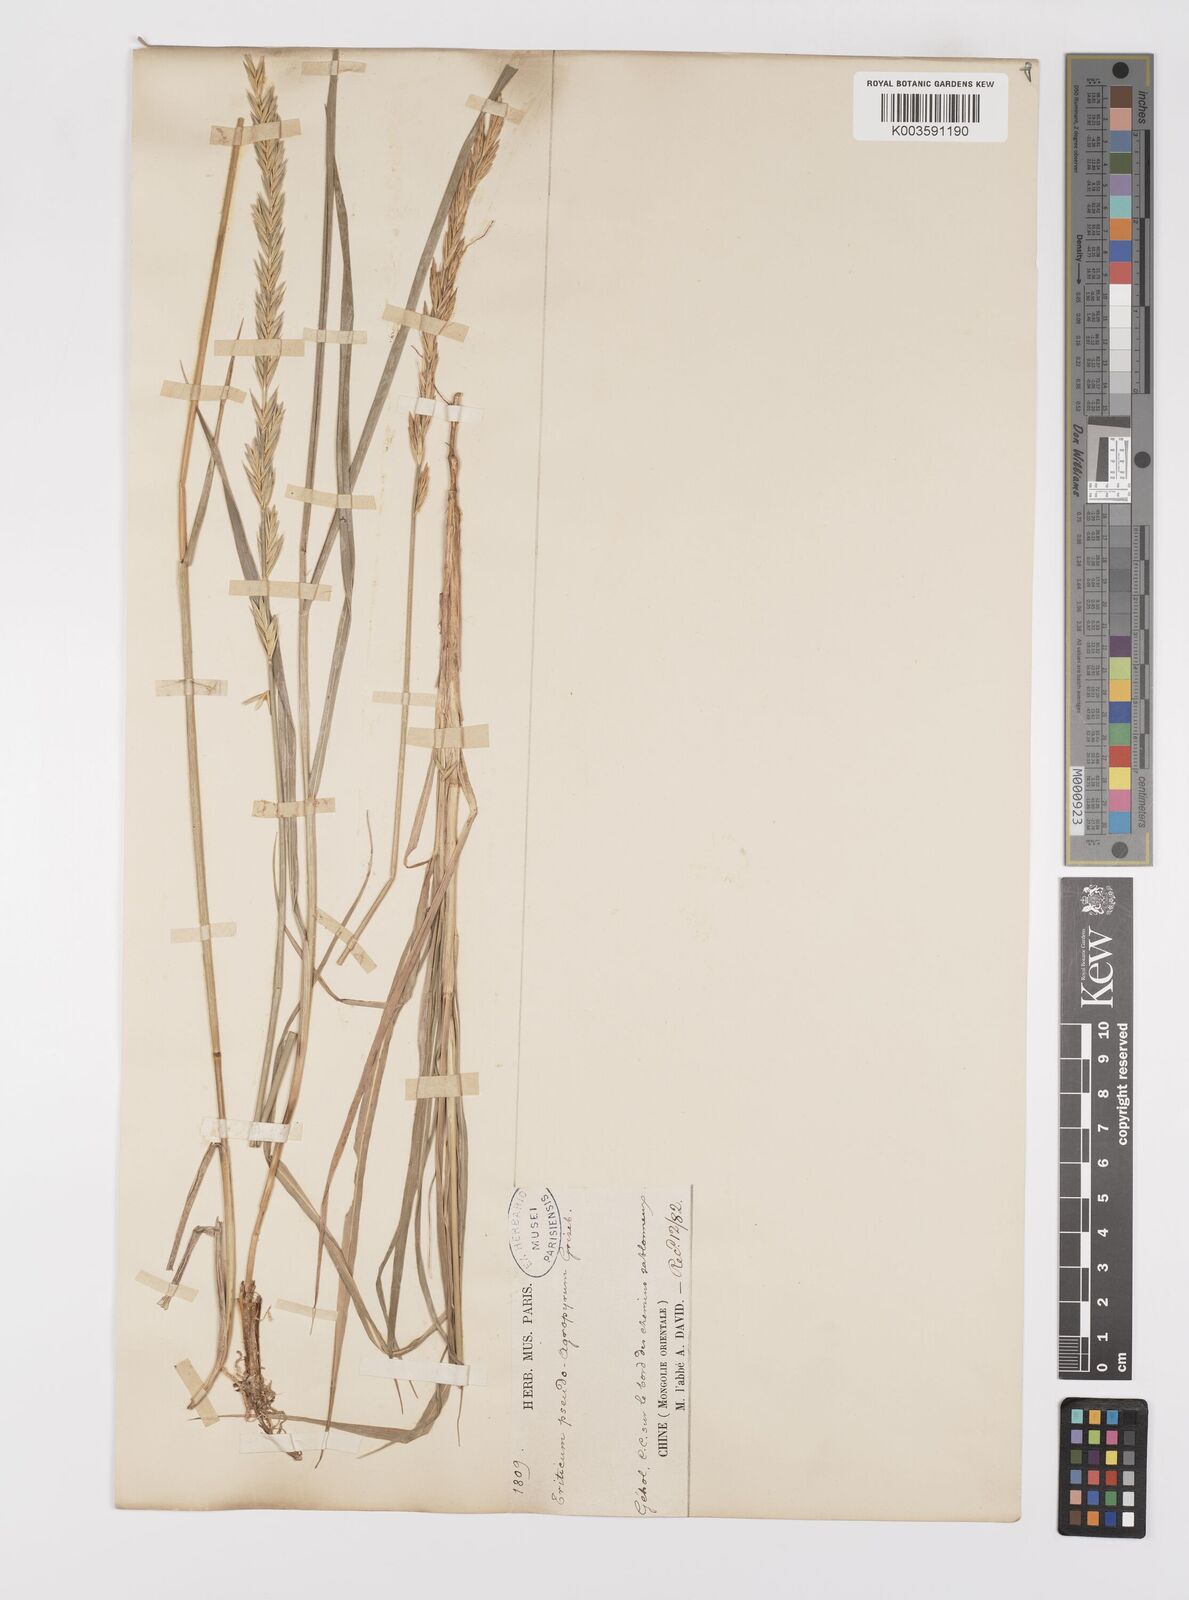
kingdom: Plantae
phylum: Tracheophyta
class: Liliopsida
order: Poales
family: Poaceae
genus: Leymus
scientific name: Leymus chinensis
